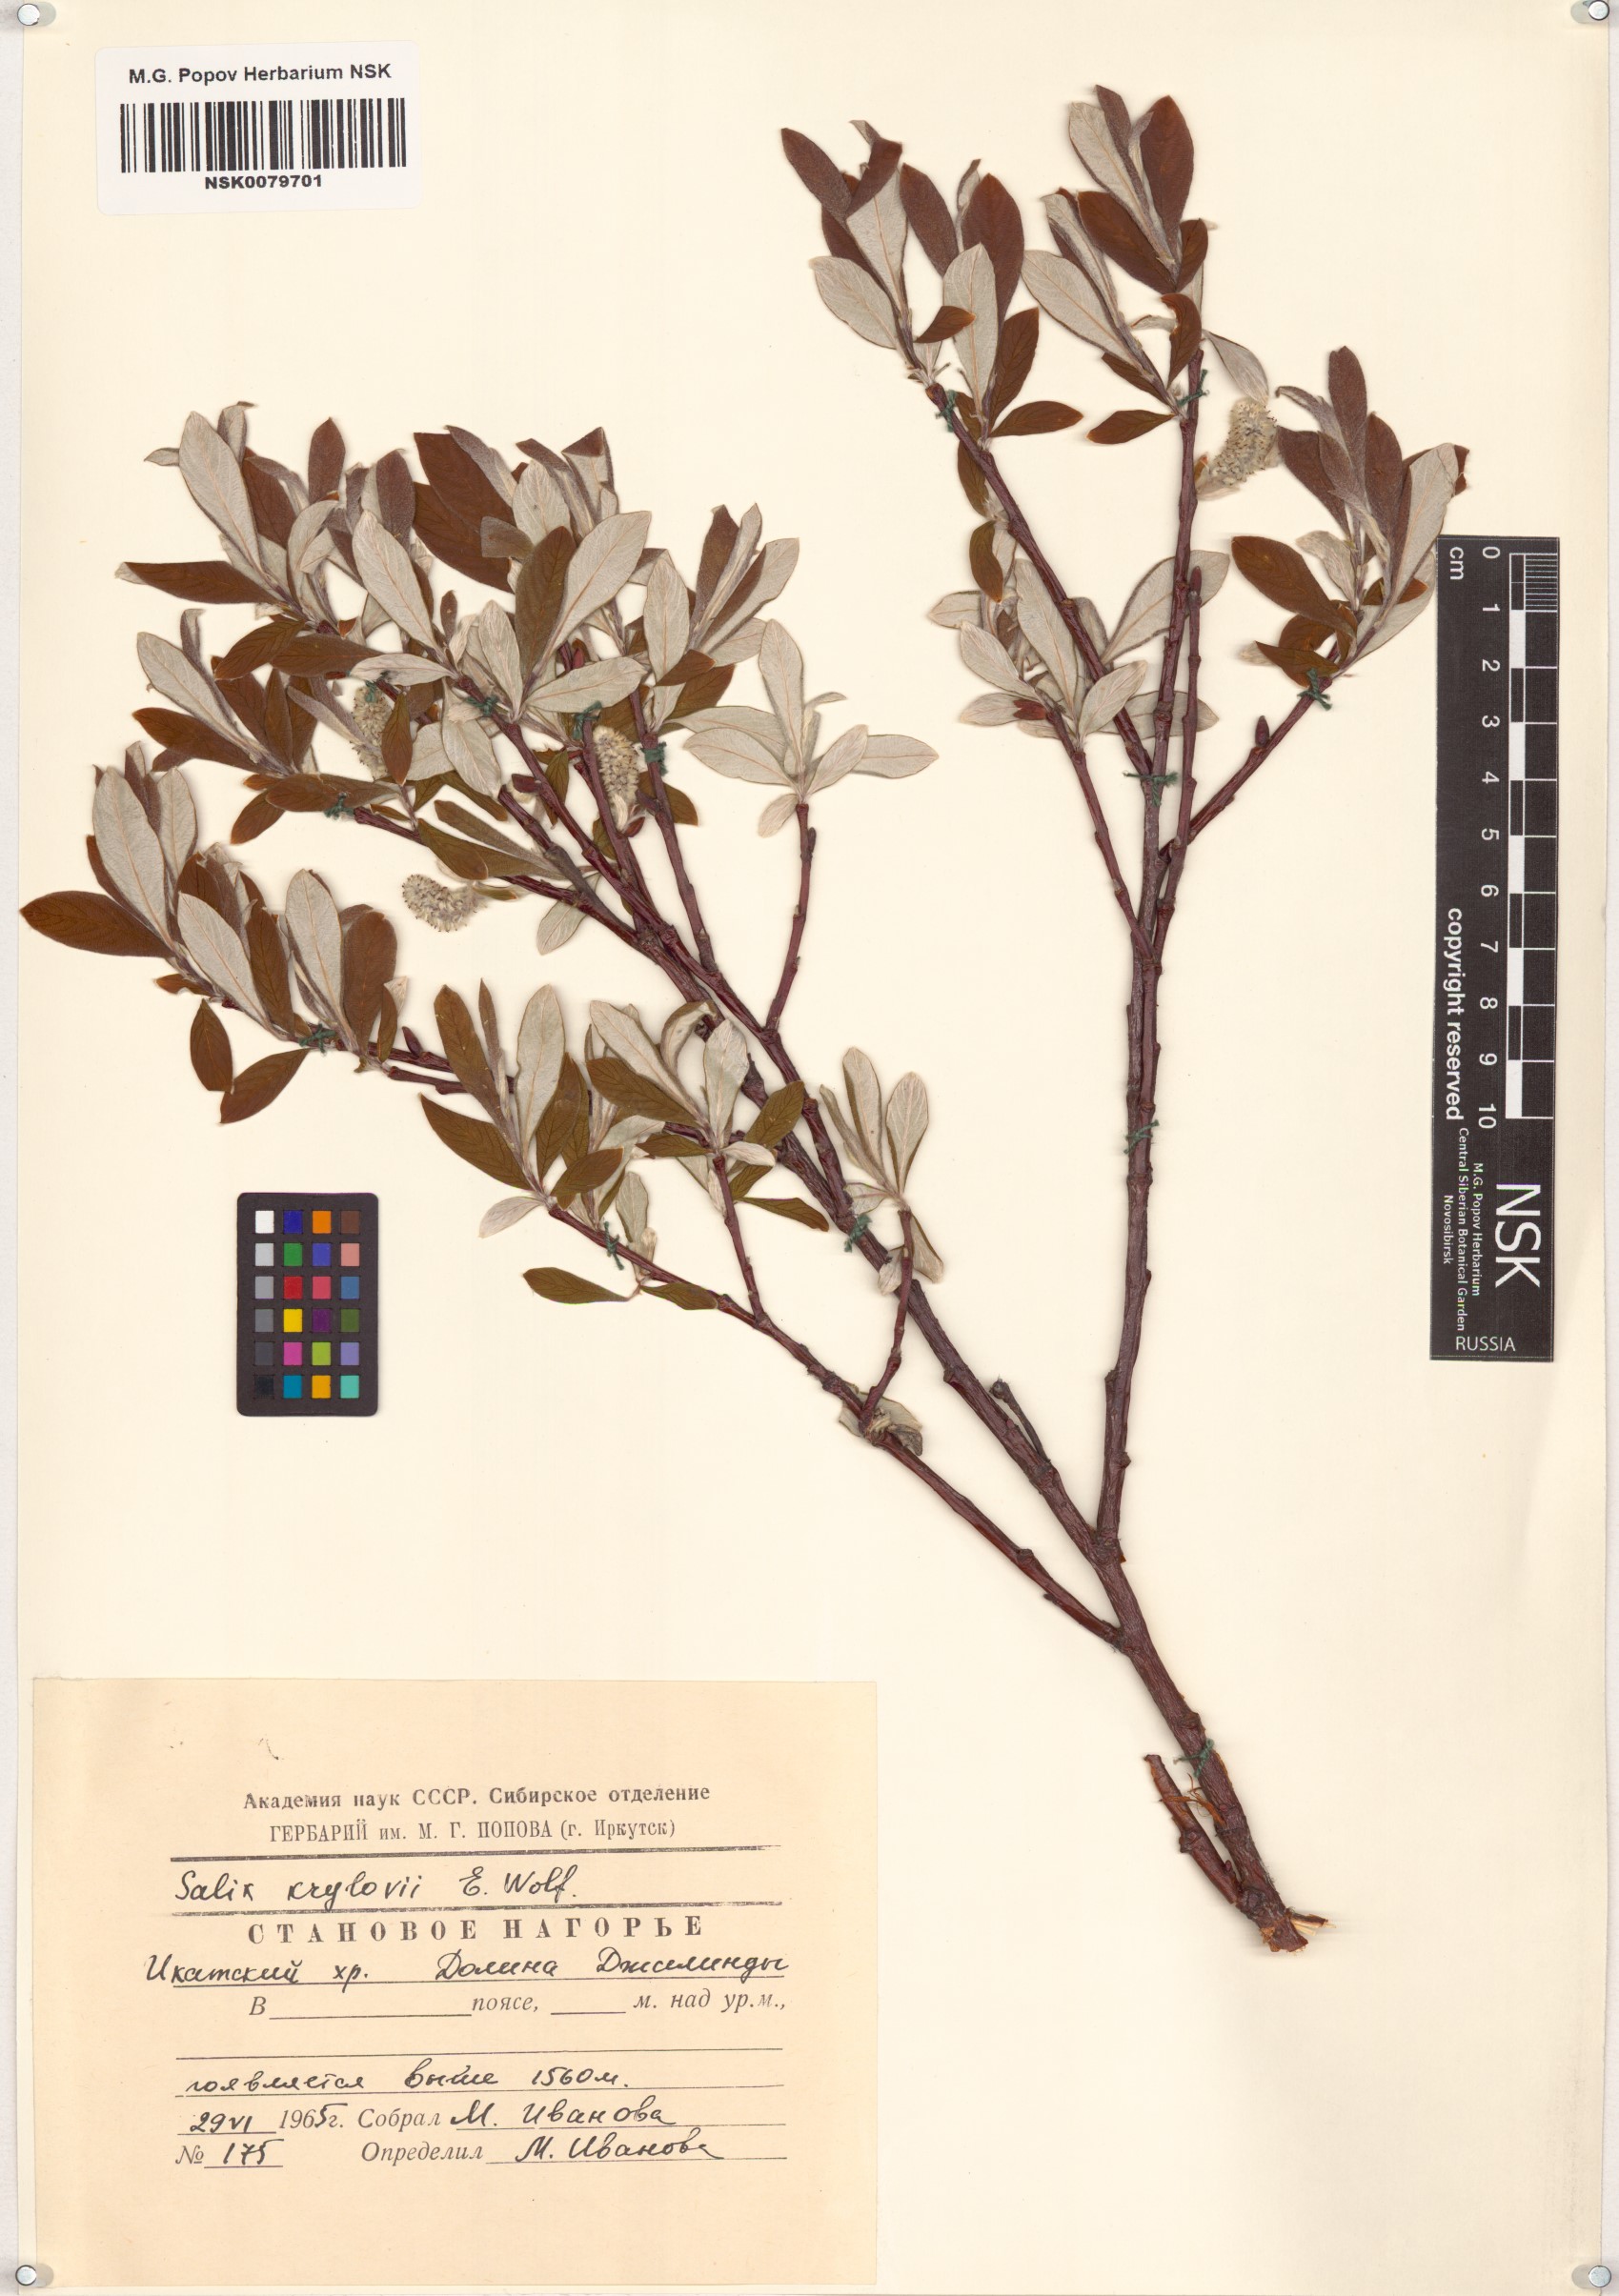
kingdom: Plantae
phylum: Tracheophyta
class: Magnoliopsida
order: Malpighiales
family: Salicaceae
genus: Salix
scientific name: Salix krylovii
